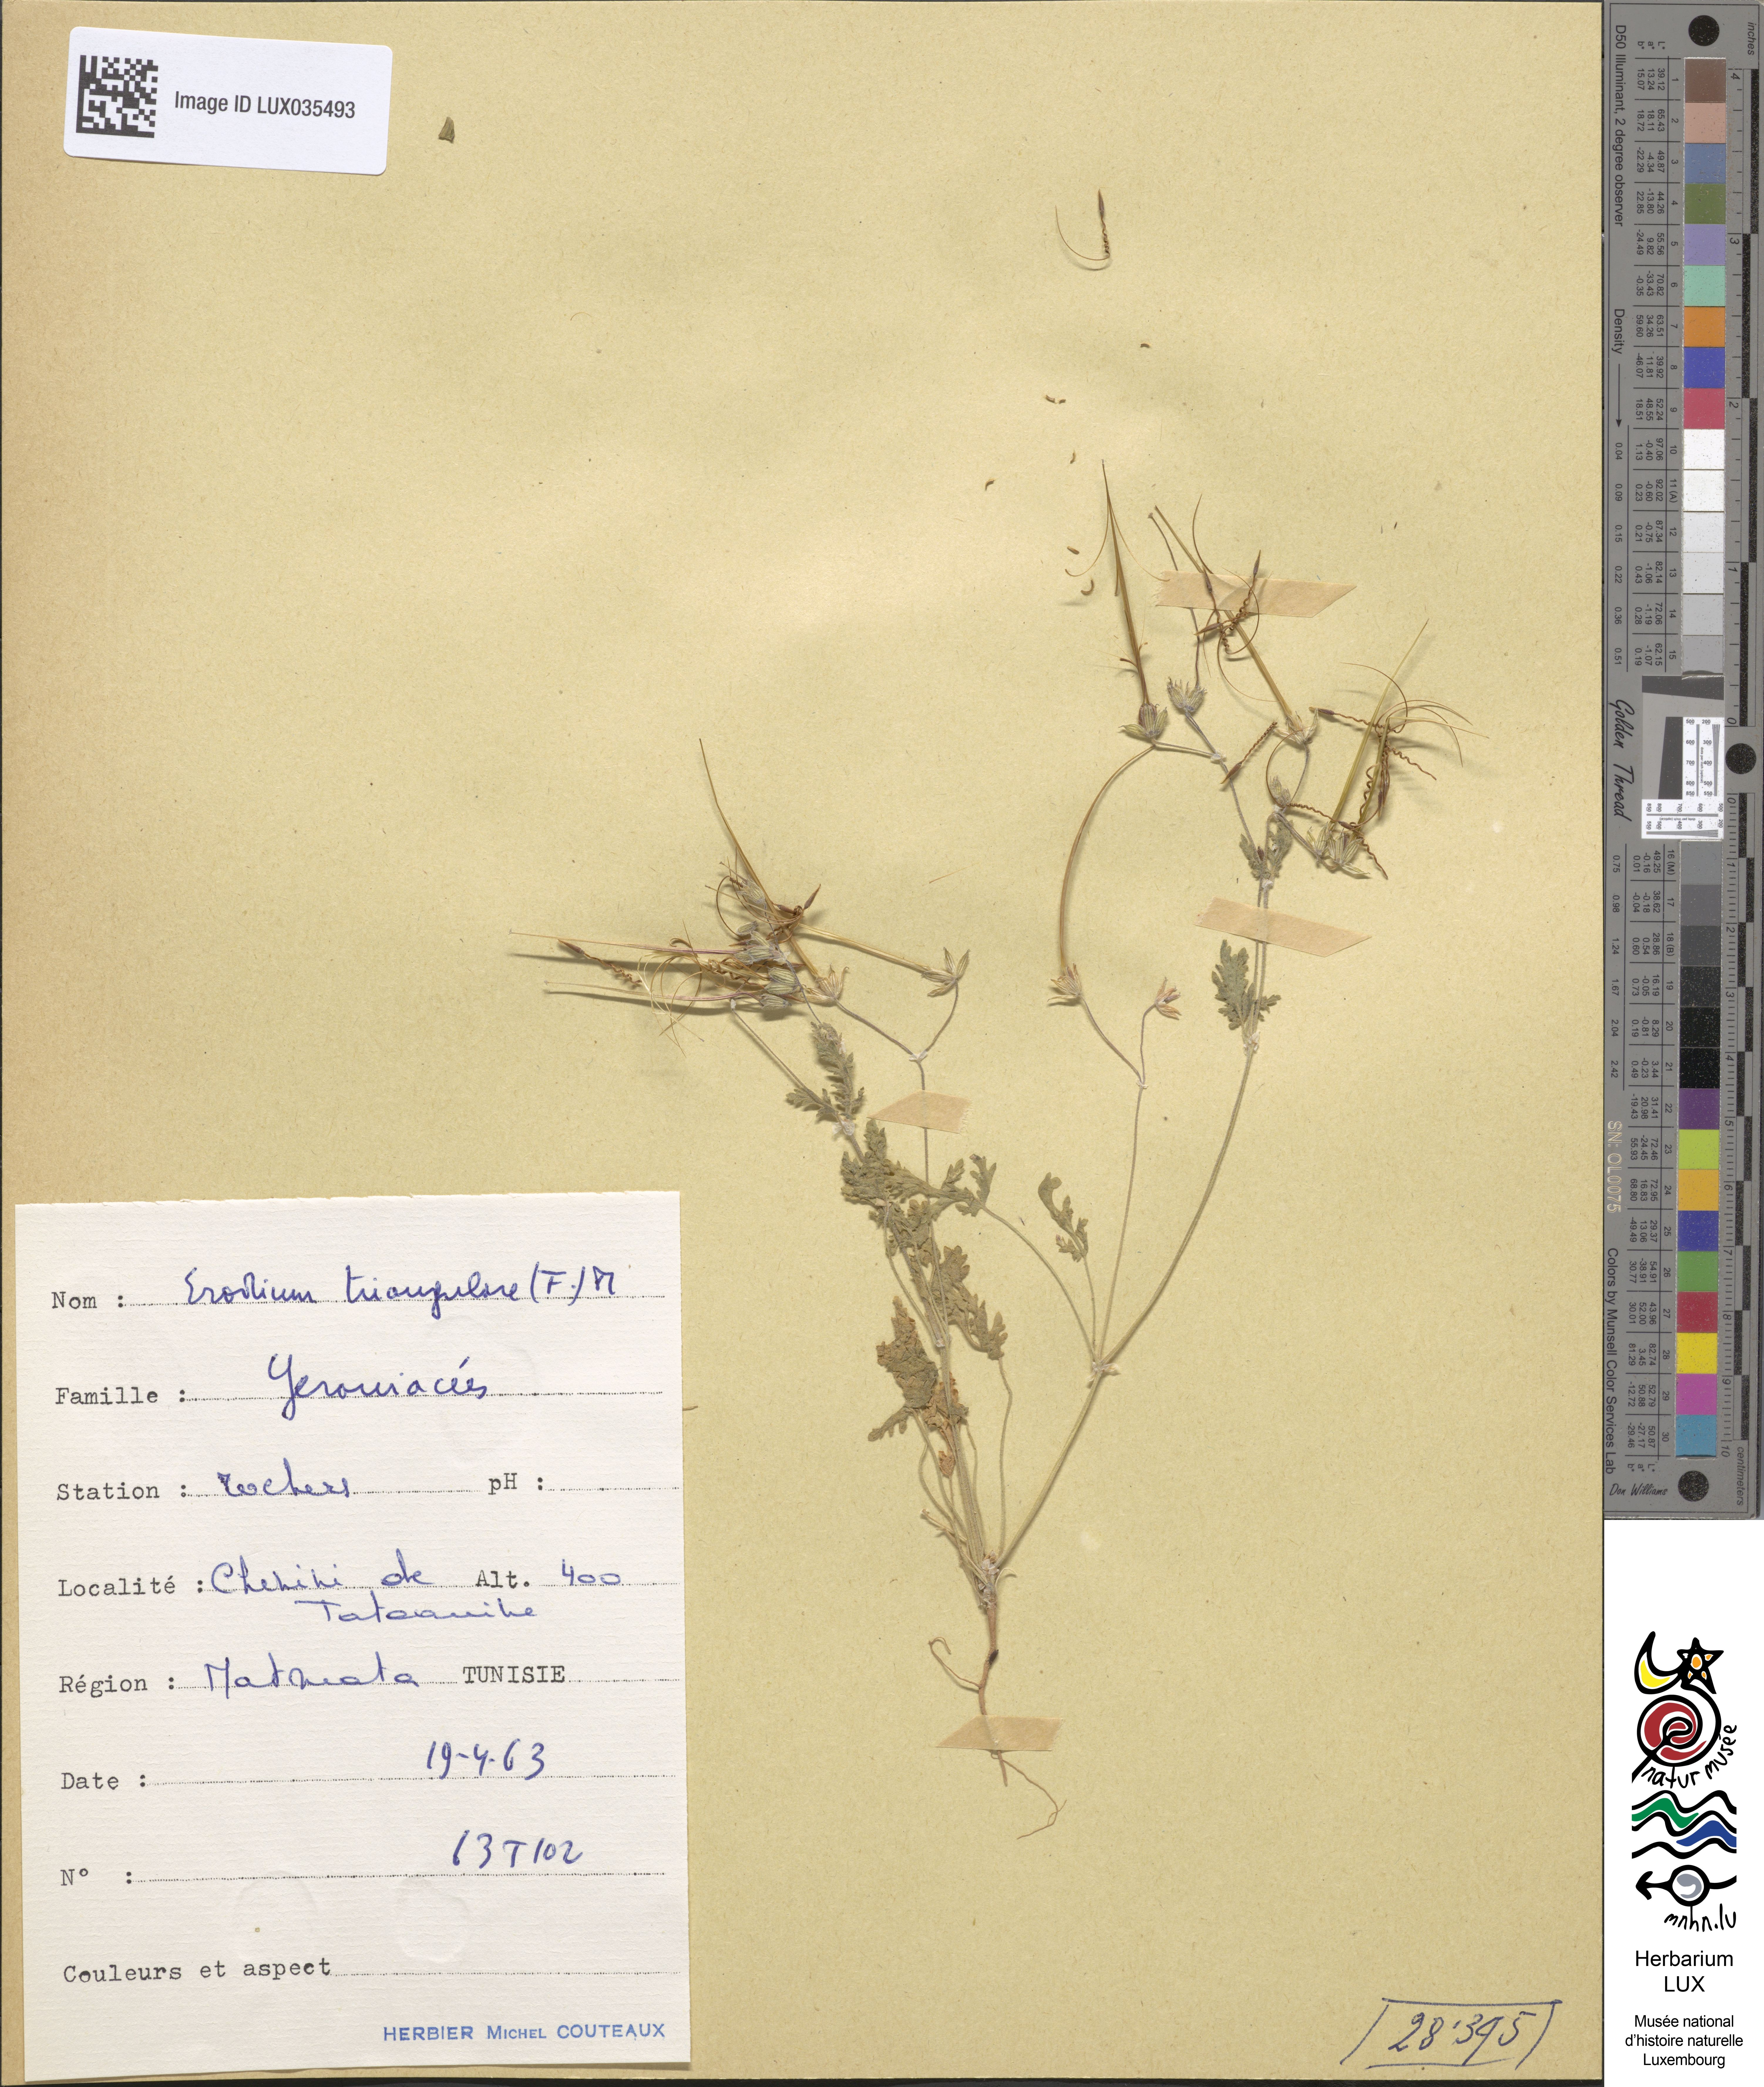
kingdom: Plantae
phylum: Tracheophyta
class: Magnoliopsida
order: Geraniales
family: Geraniaceae
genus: Erodium
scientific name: Erodium laciniatum
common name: Cutleaf stork's bill
